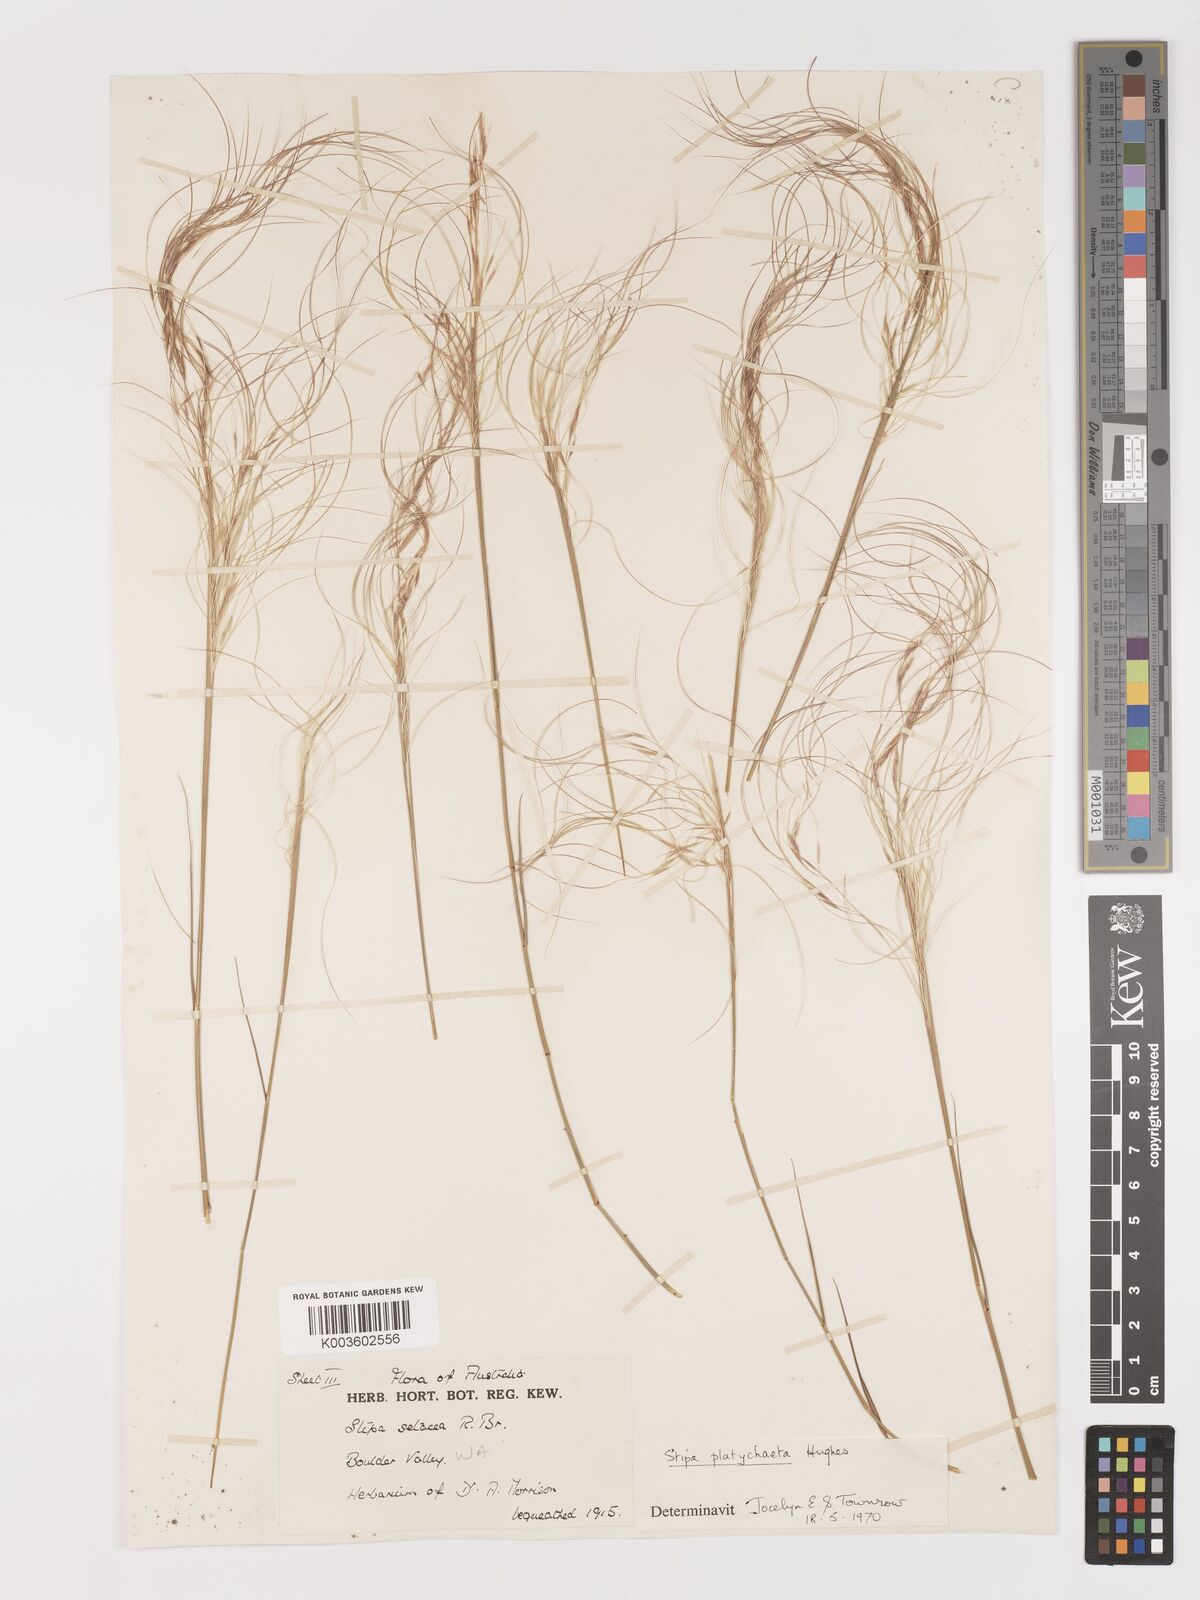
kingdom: Plantae
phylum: Tracheophyta
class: Liliopsida
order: Poales
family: Poaceae
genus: Austrostipa
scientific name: Austrostipa platychaeta
